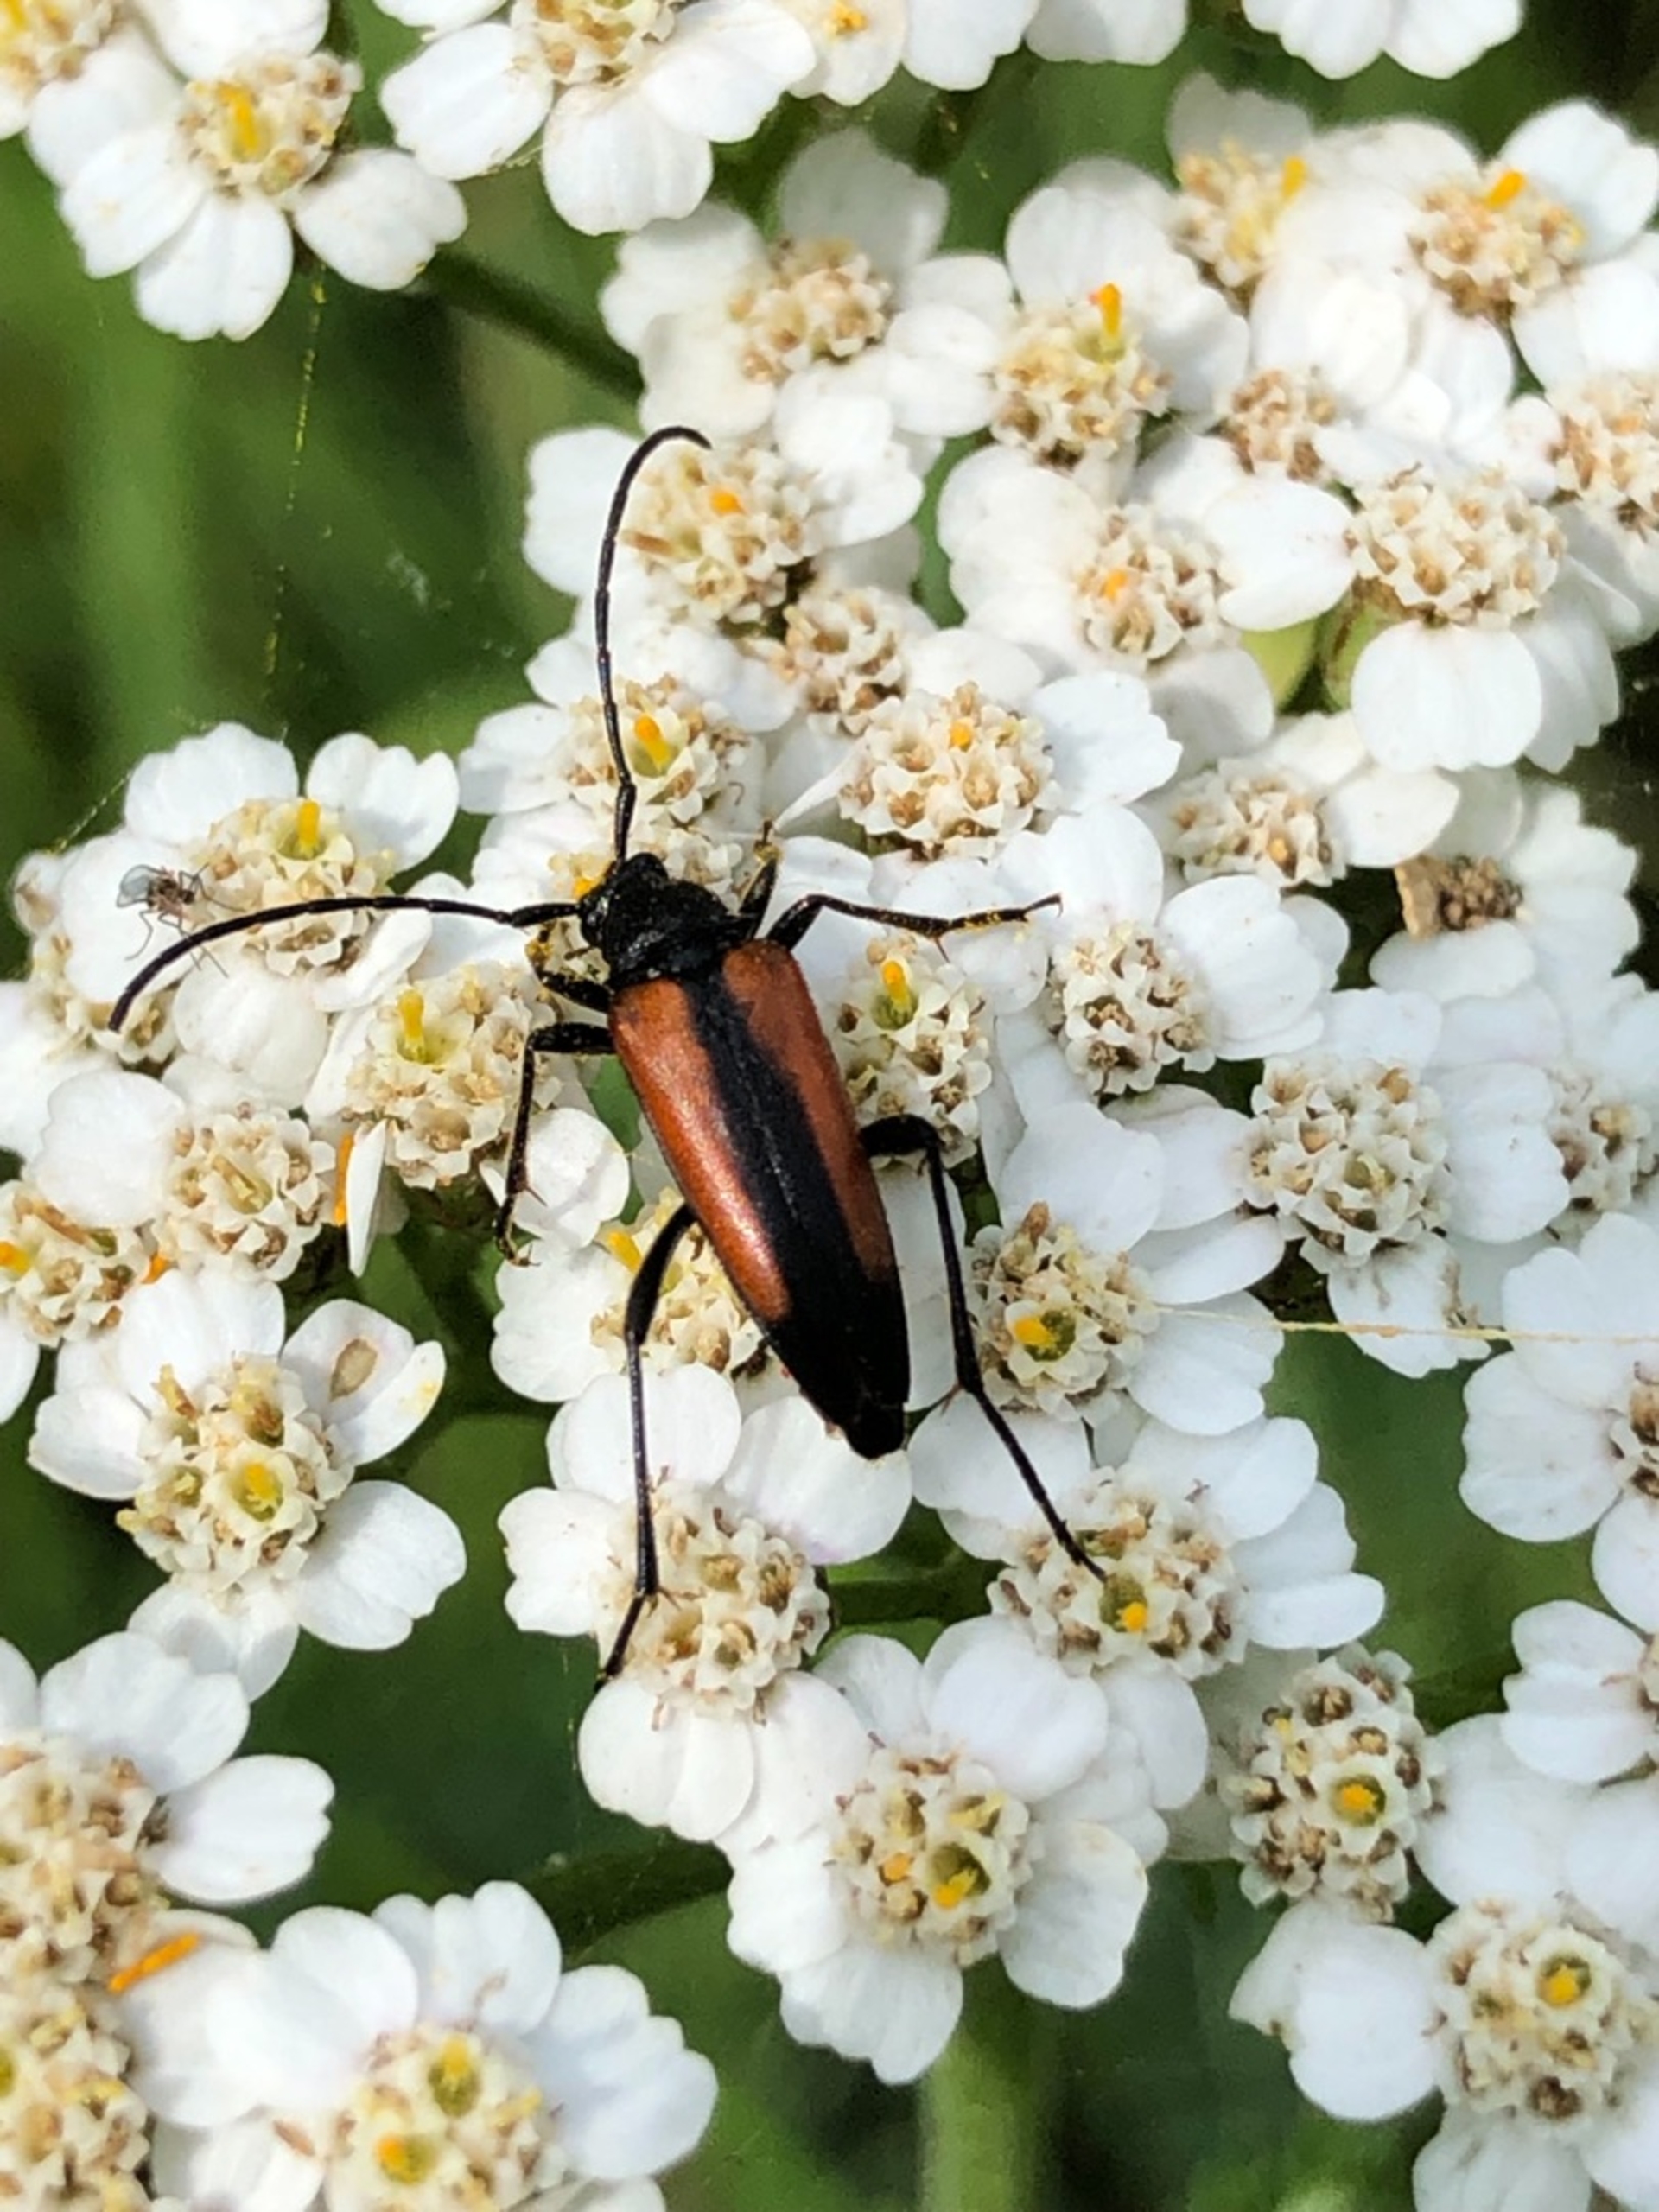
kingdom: Animalia
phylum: Arthropoda
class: Insecta
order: Coleoptera
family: Cerambycidae
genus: Stenurella
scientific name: Stenurella melanura
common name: Sortsømmet blomsterbuk
